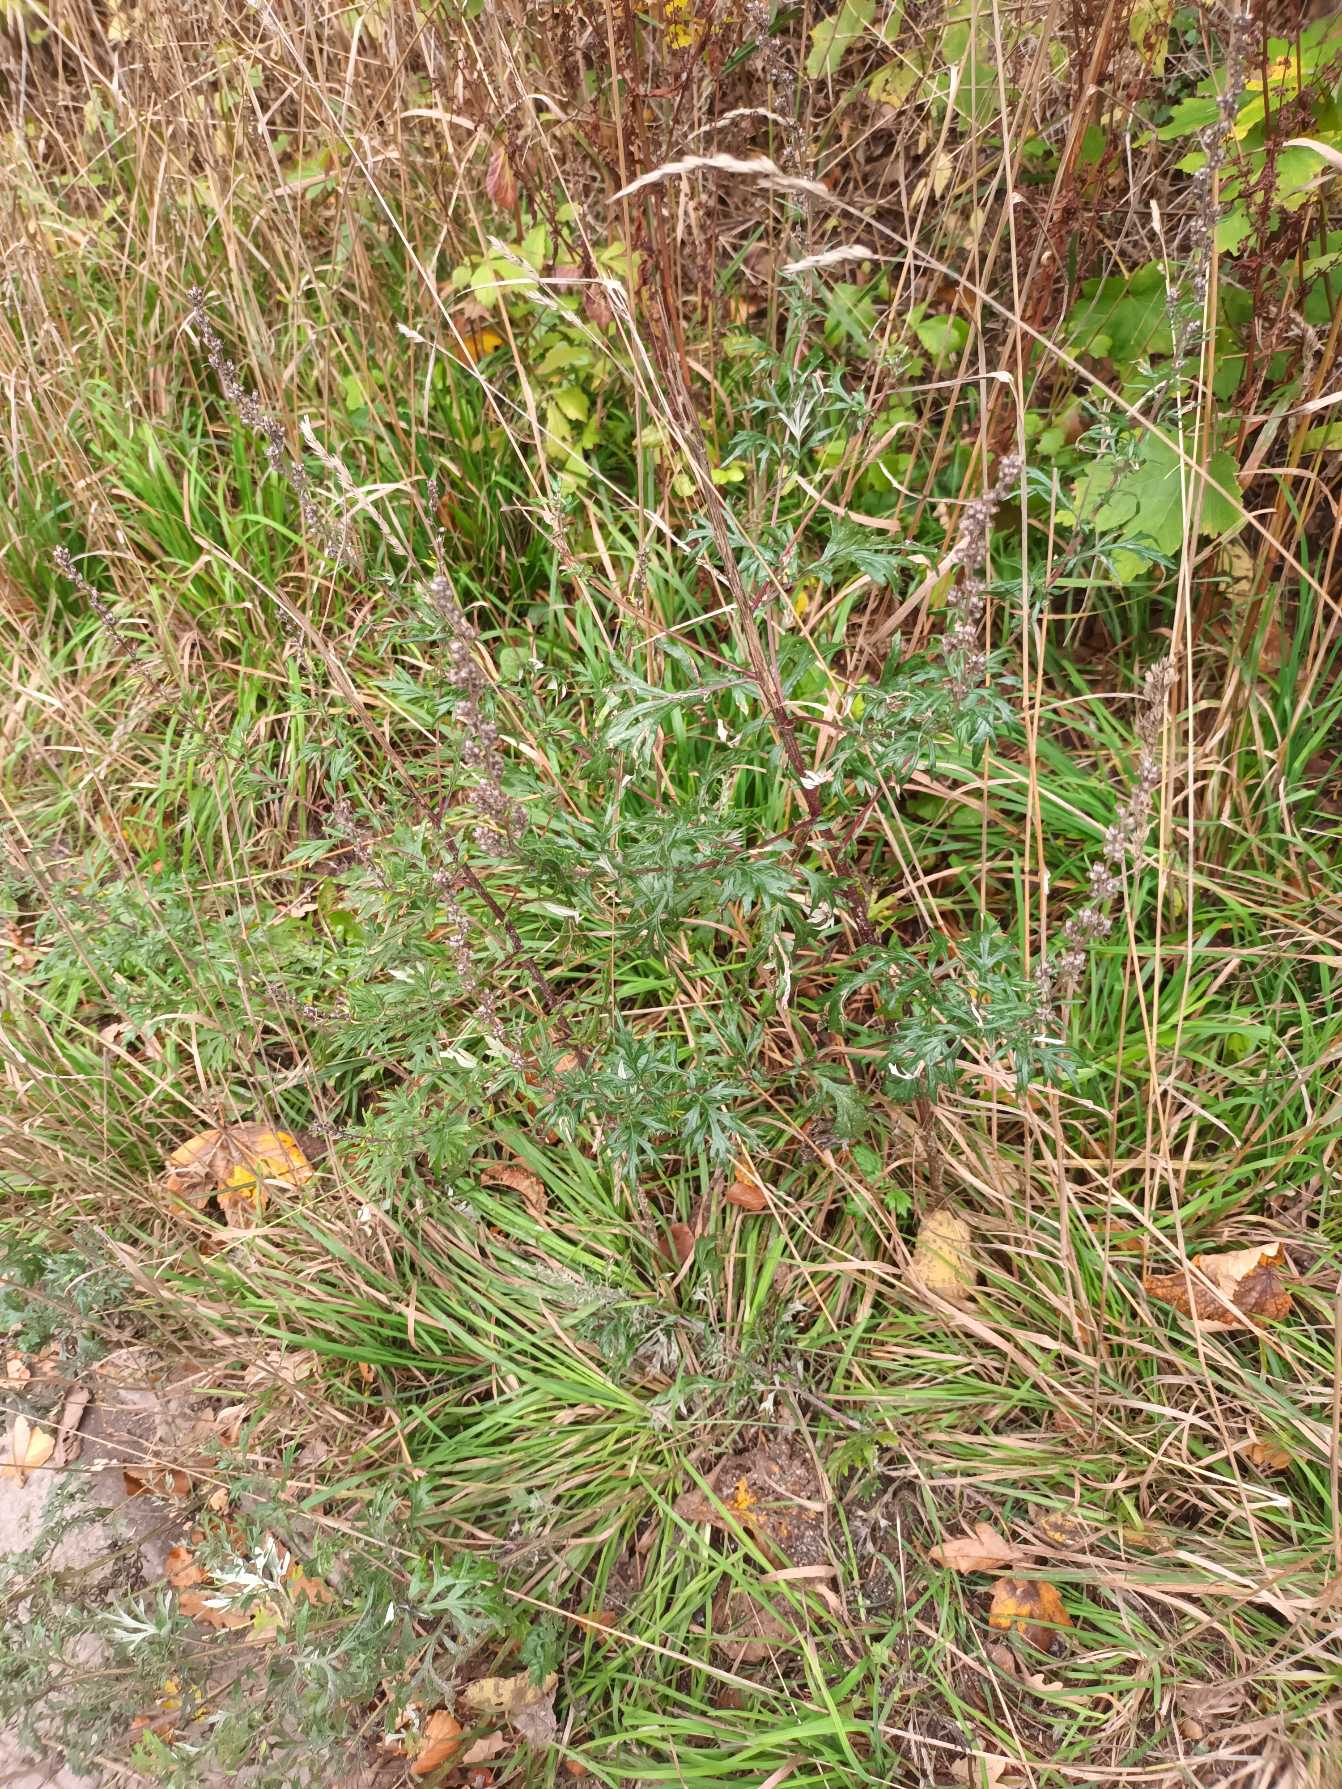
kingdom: Plantae
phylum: Tracheophyta
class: Magnoliopsida
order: Asterales
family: Asteraceae
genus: Artemisia
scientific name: Artemisia vulgaris
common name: Grå-bynke
